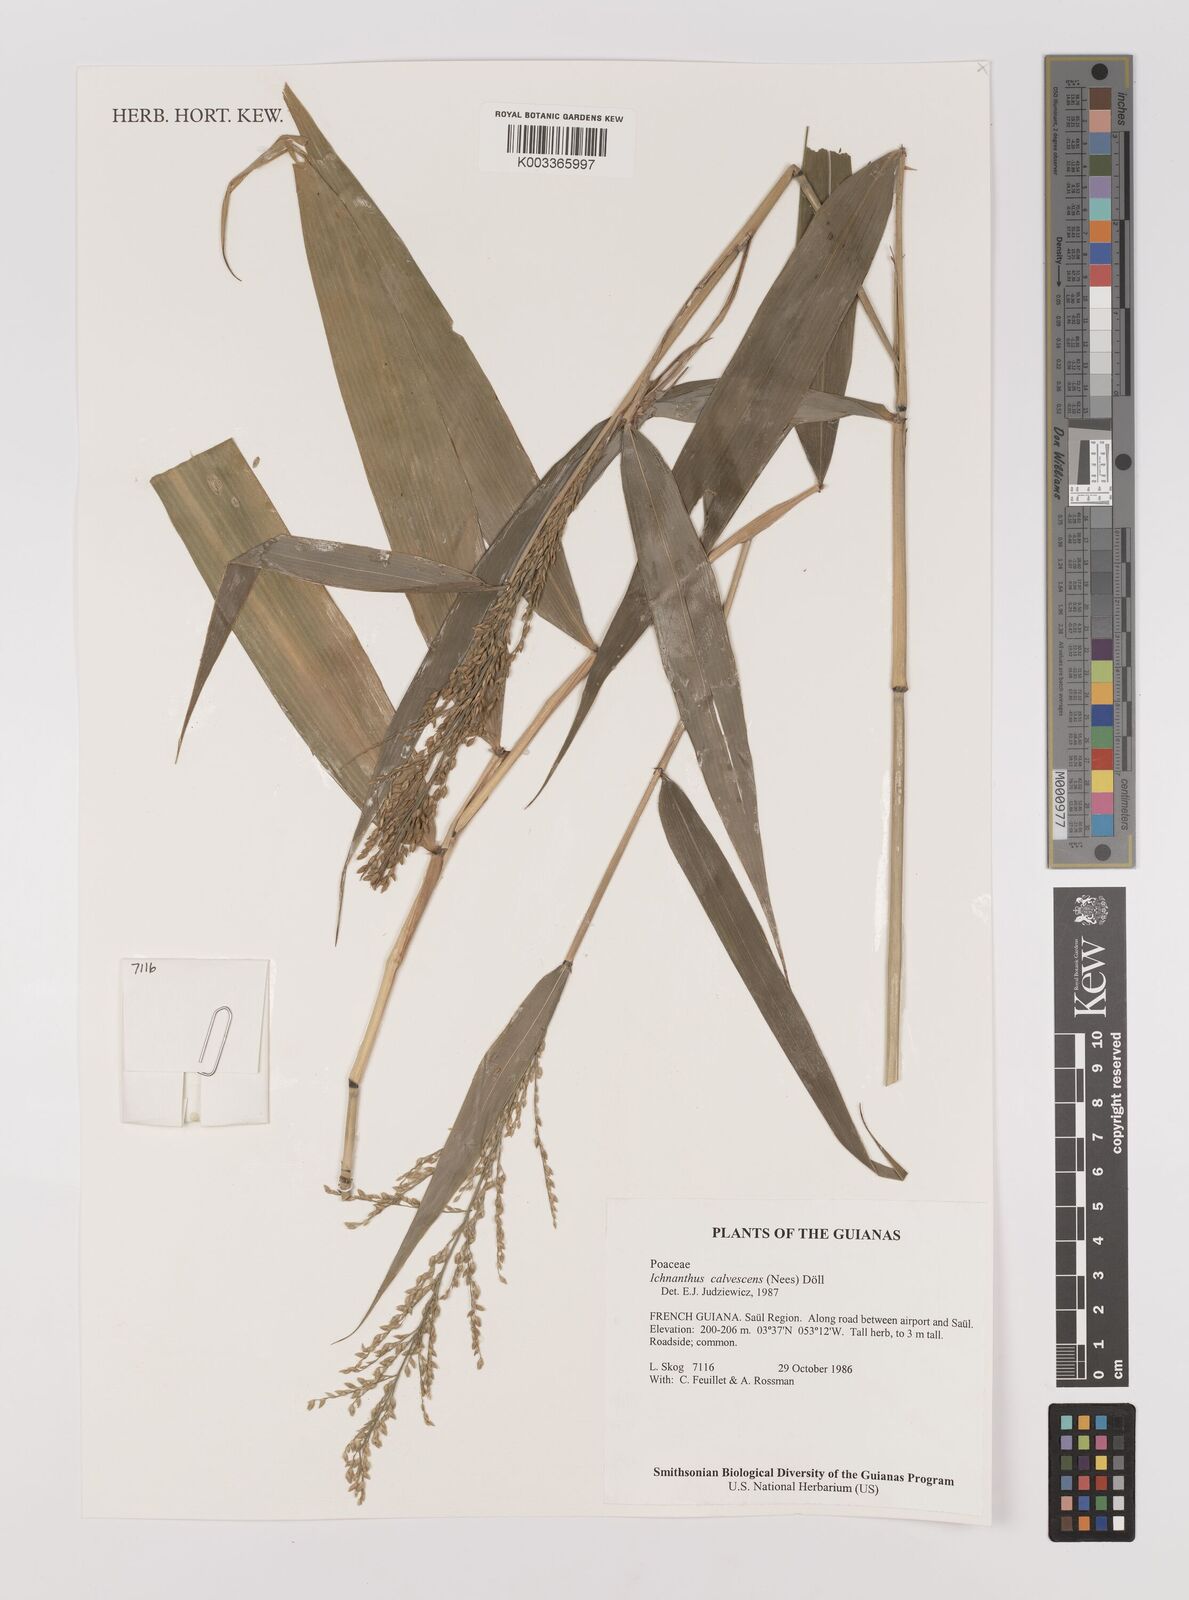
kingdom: Plantae
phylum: Tracheophyta
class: Liliopsida
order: Poales
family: Poaceae
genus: Ichnanthus
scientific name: Ichnanthus calvescens
